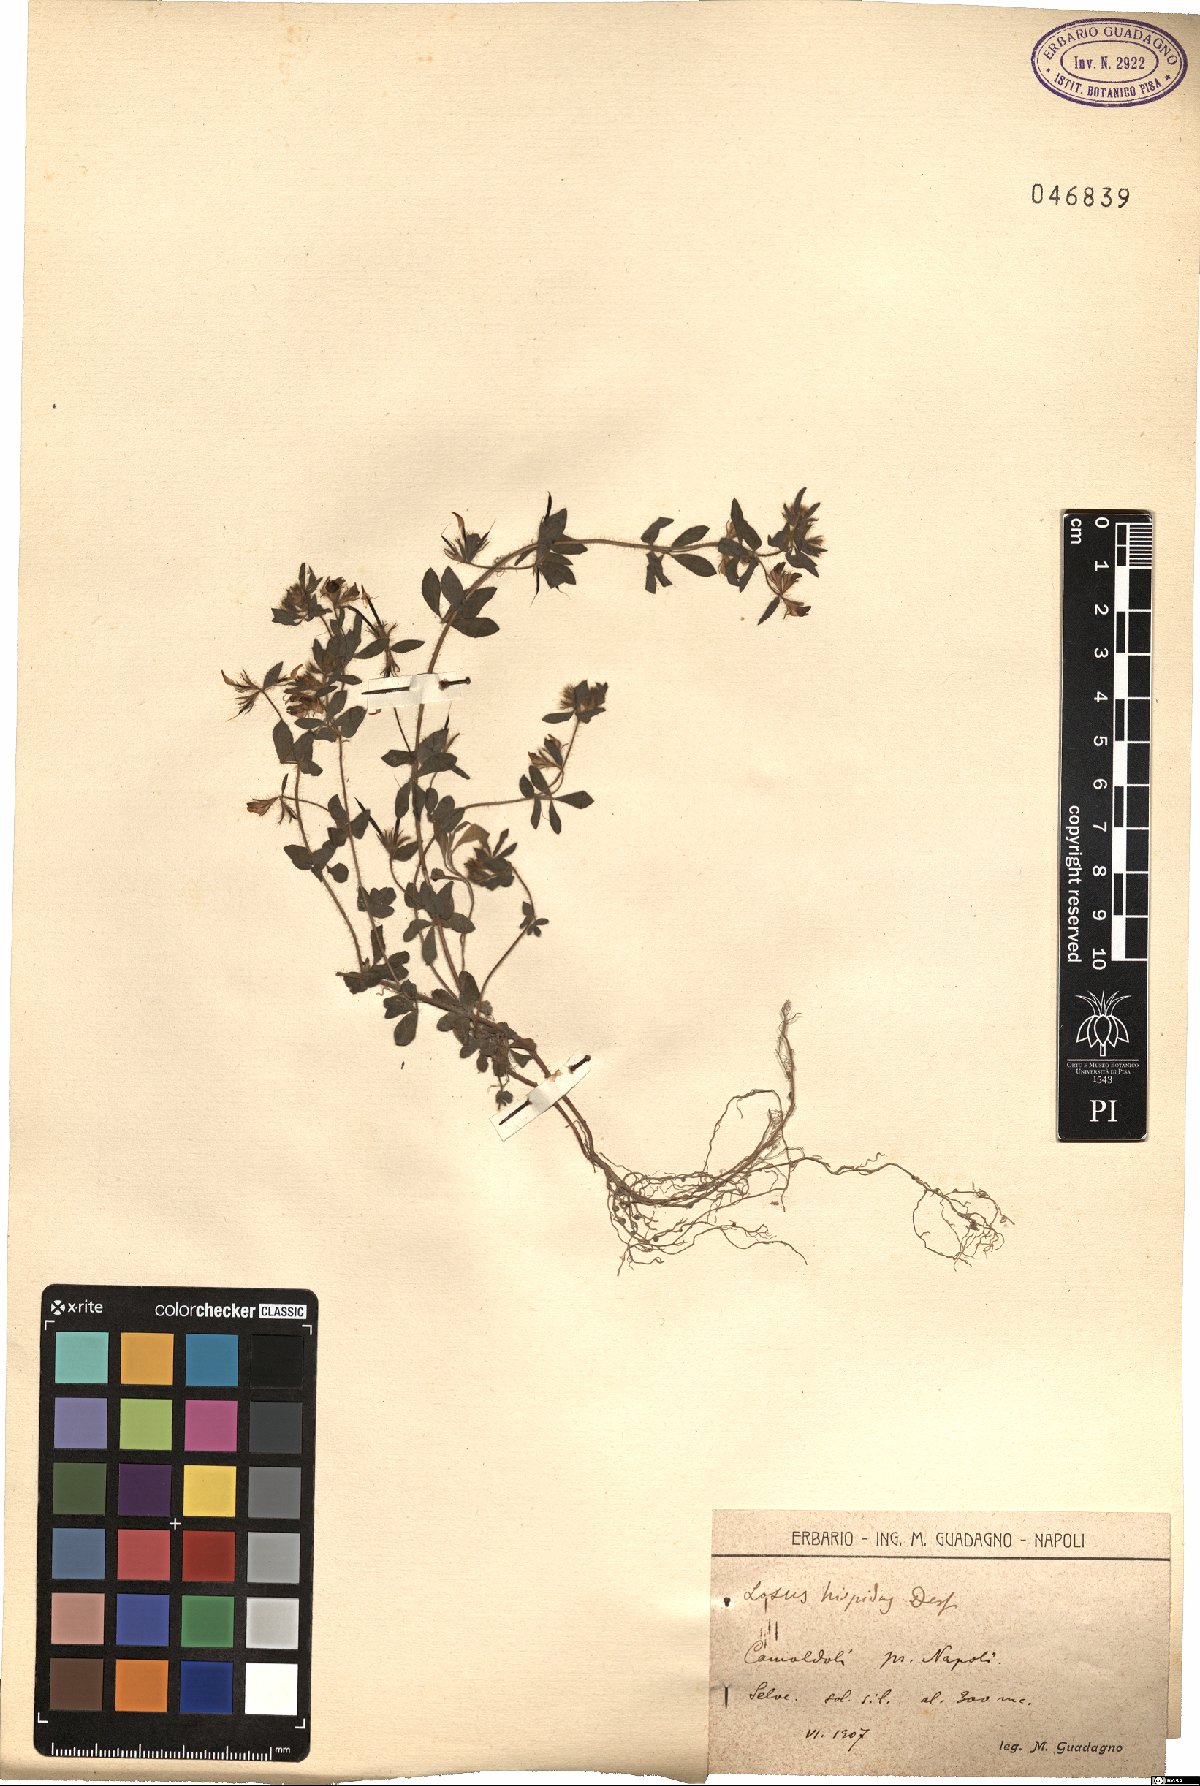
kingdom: Plantae
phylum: Tracheophyta
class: Magnoliopsida
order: Fabales
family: Fabaceae
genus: Lotus
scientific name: Lotus parviflorus
